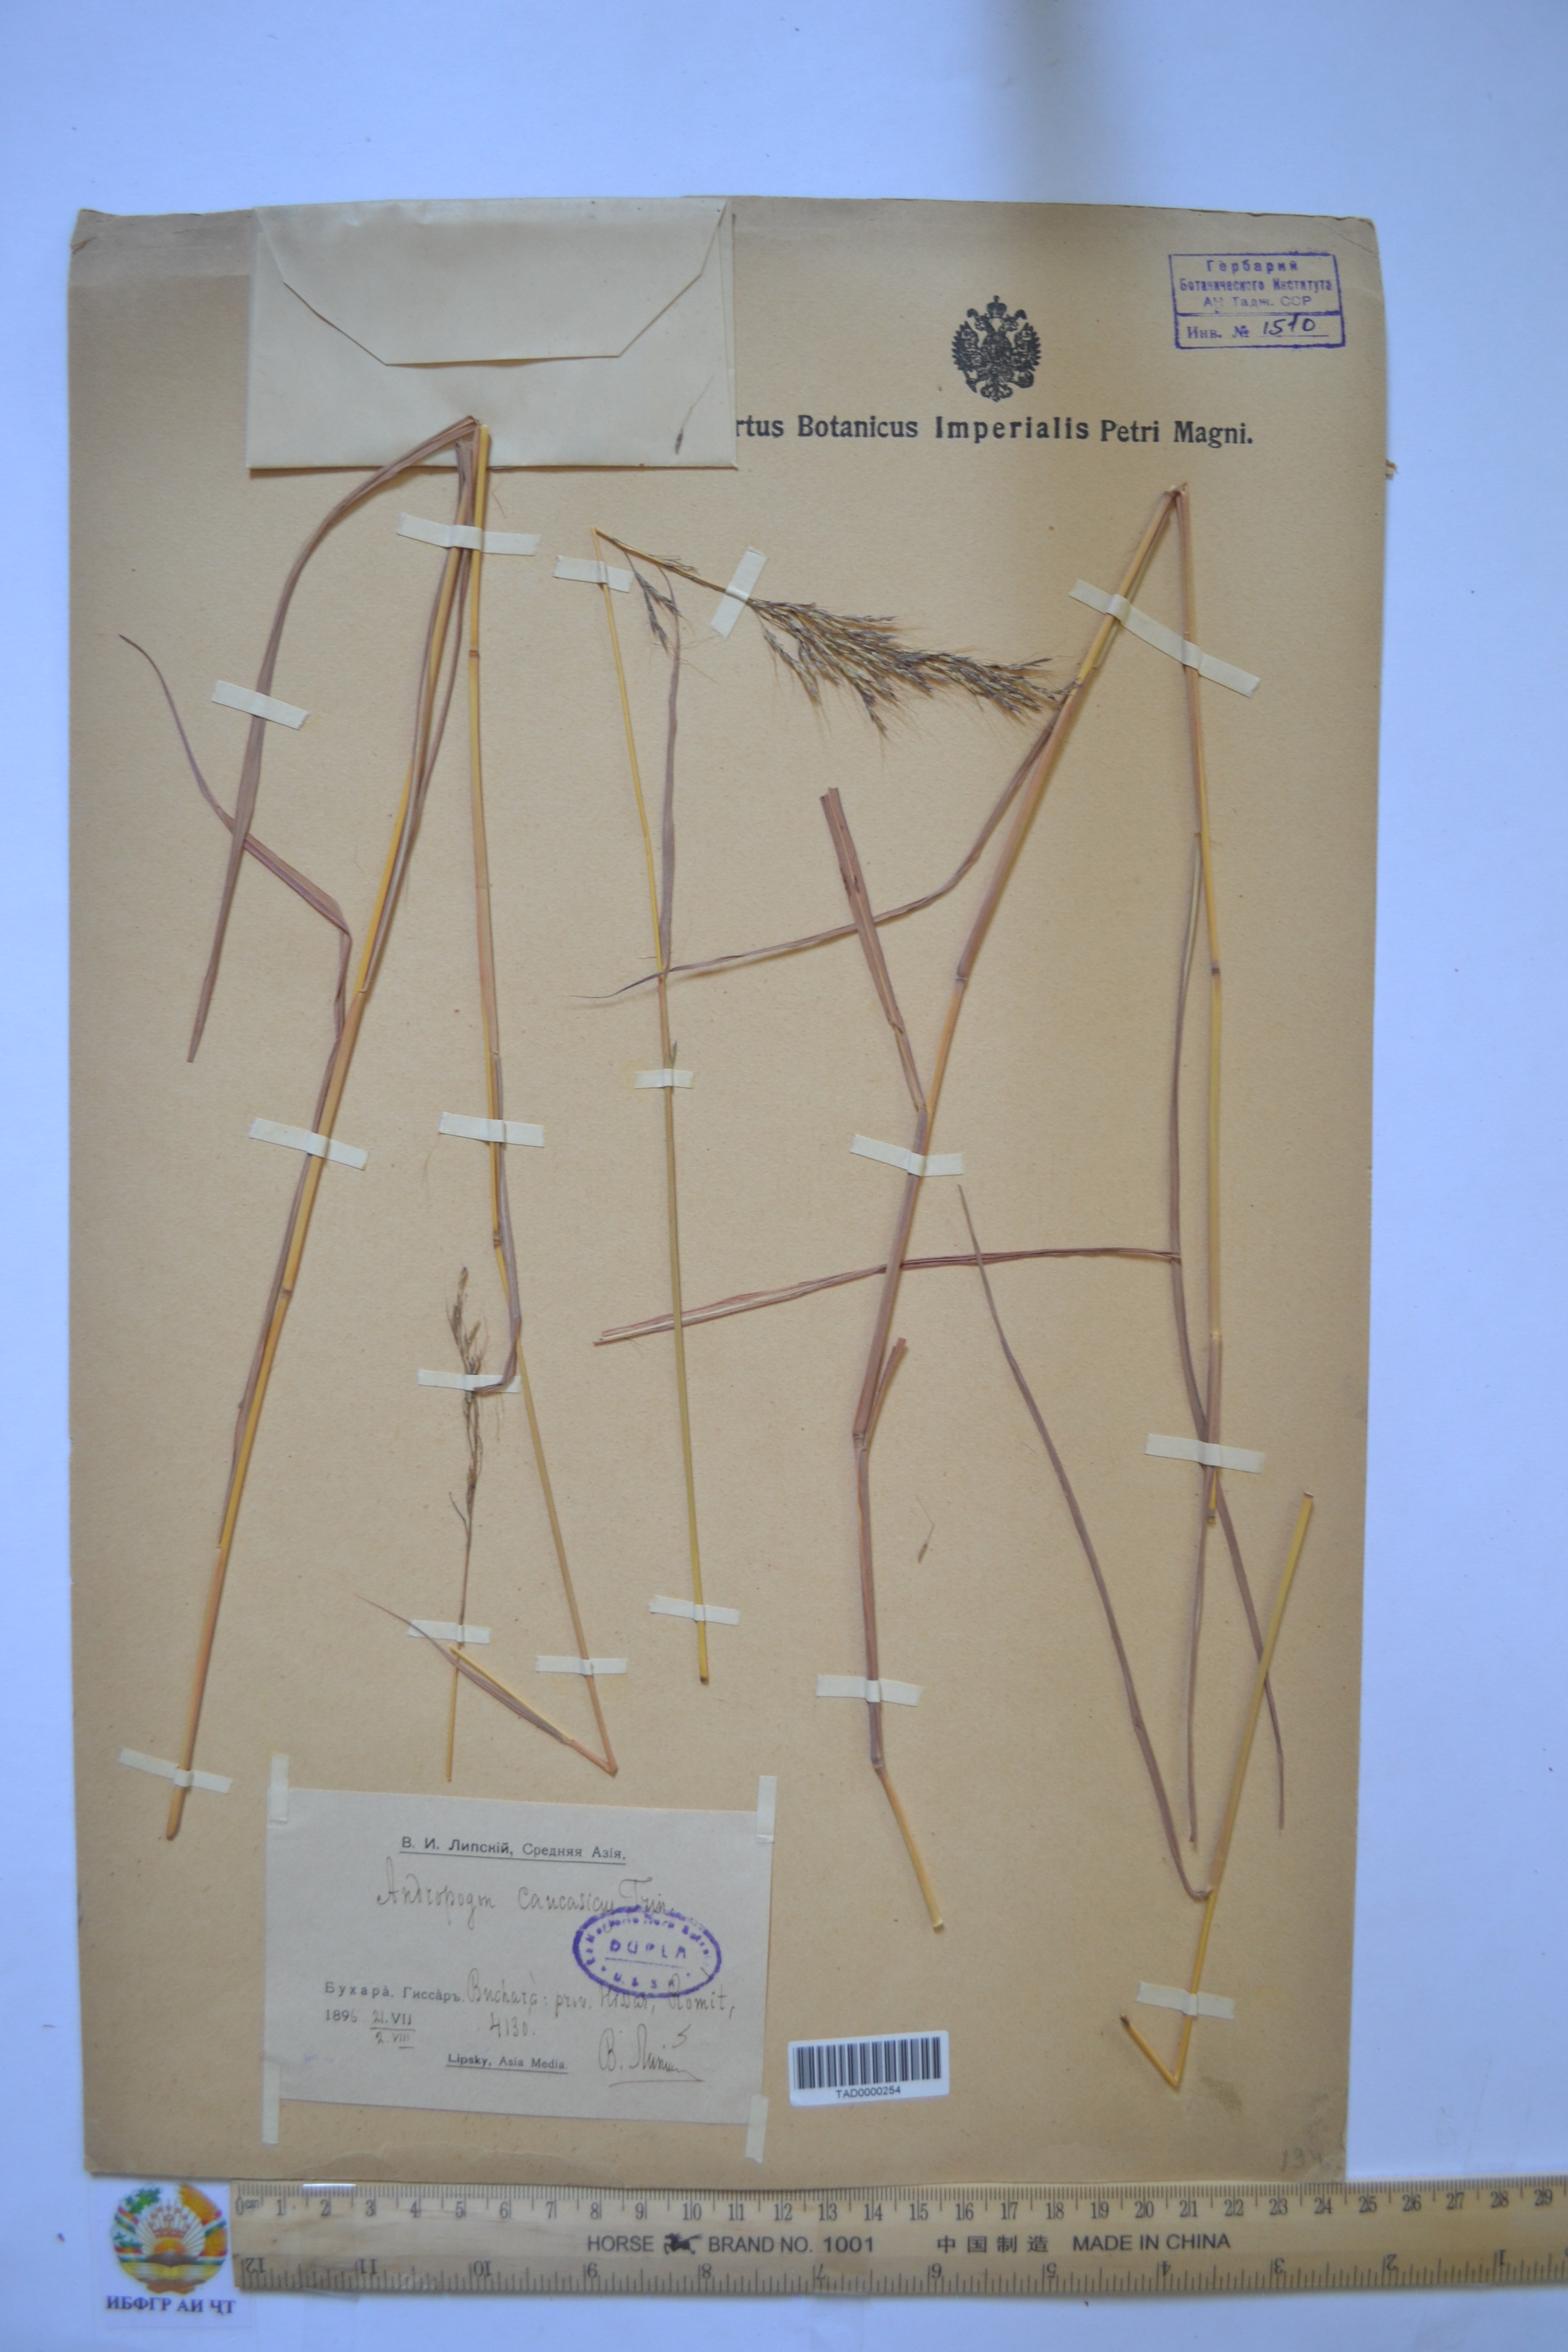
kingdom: Plantae
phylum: Tracheophyta
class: Liliopsida
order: Poales
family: Poaceae
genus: Bothriochloa
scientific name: Bothriochloa bladhii
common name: Caucasian bluestem
